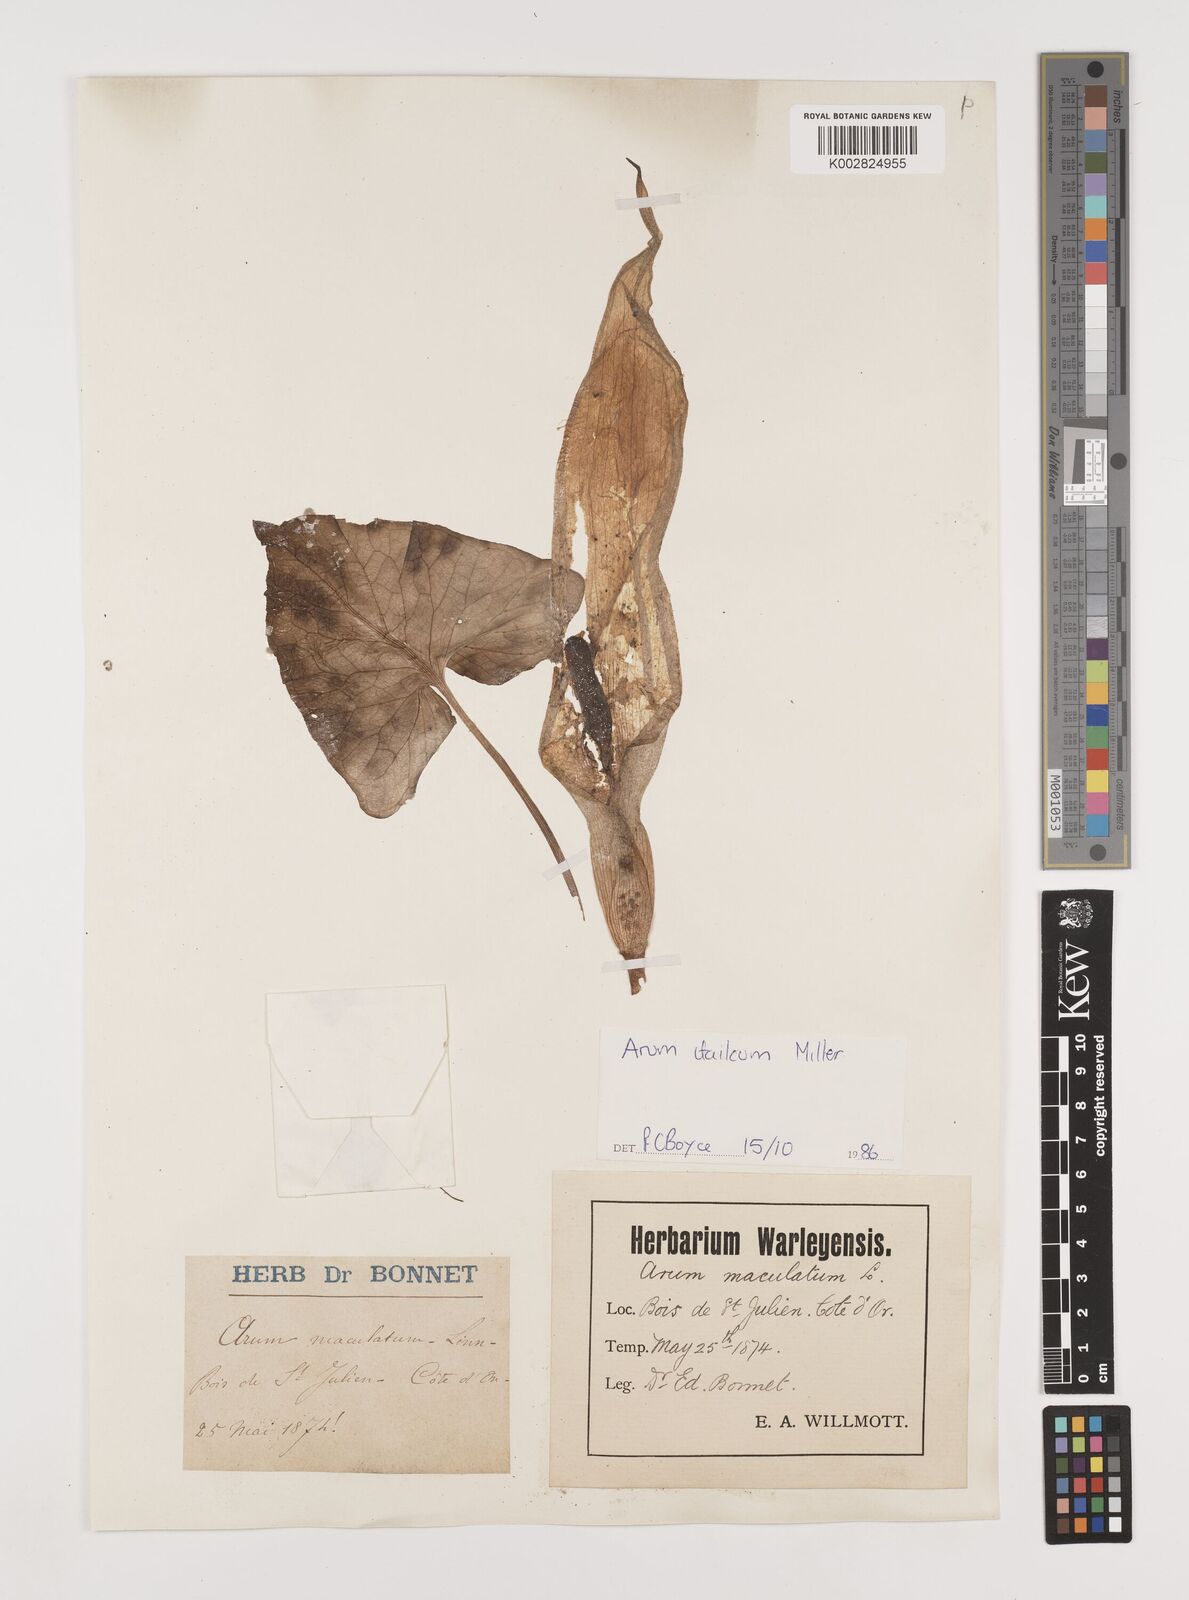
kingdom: Plantae
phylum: Tracheophyta
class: Liliopsida
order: Alismatales
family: Araceae
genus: Arum
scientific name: Arum italicum
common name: Italian lords-and-ladies
